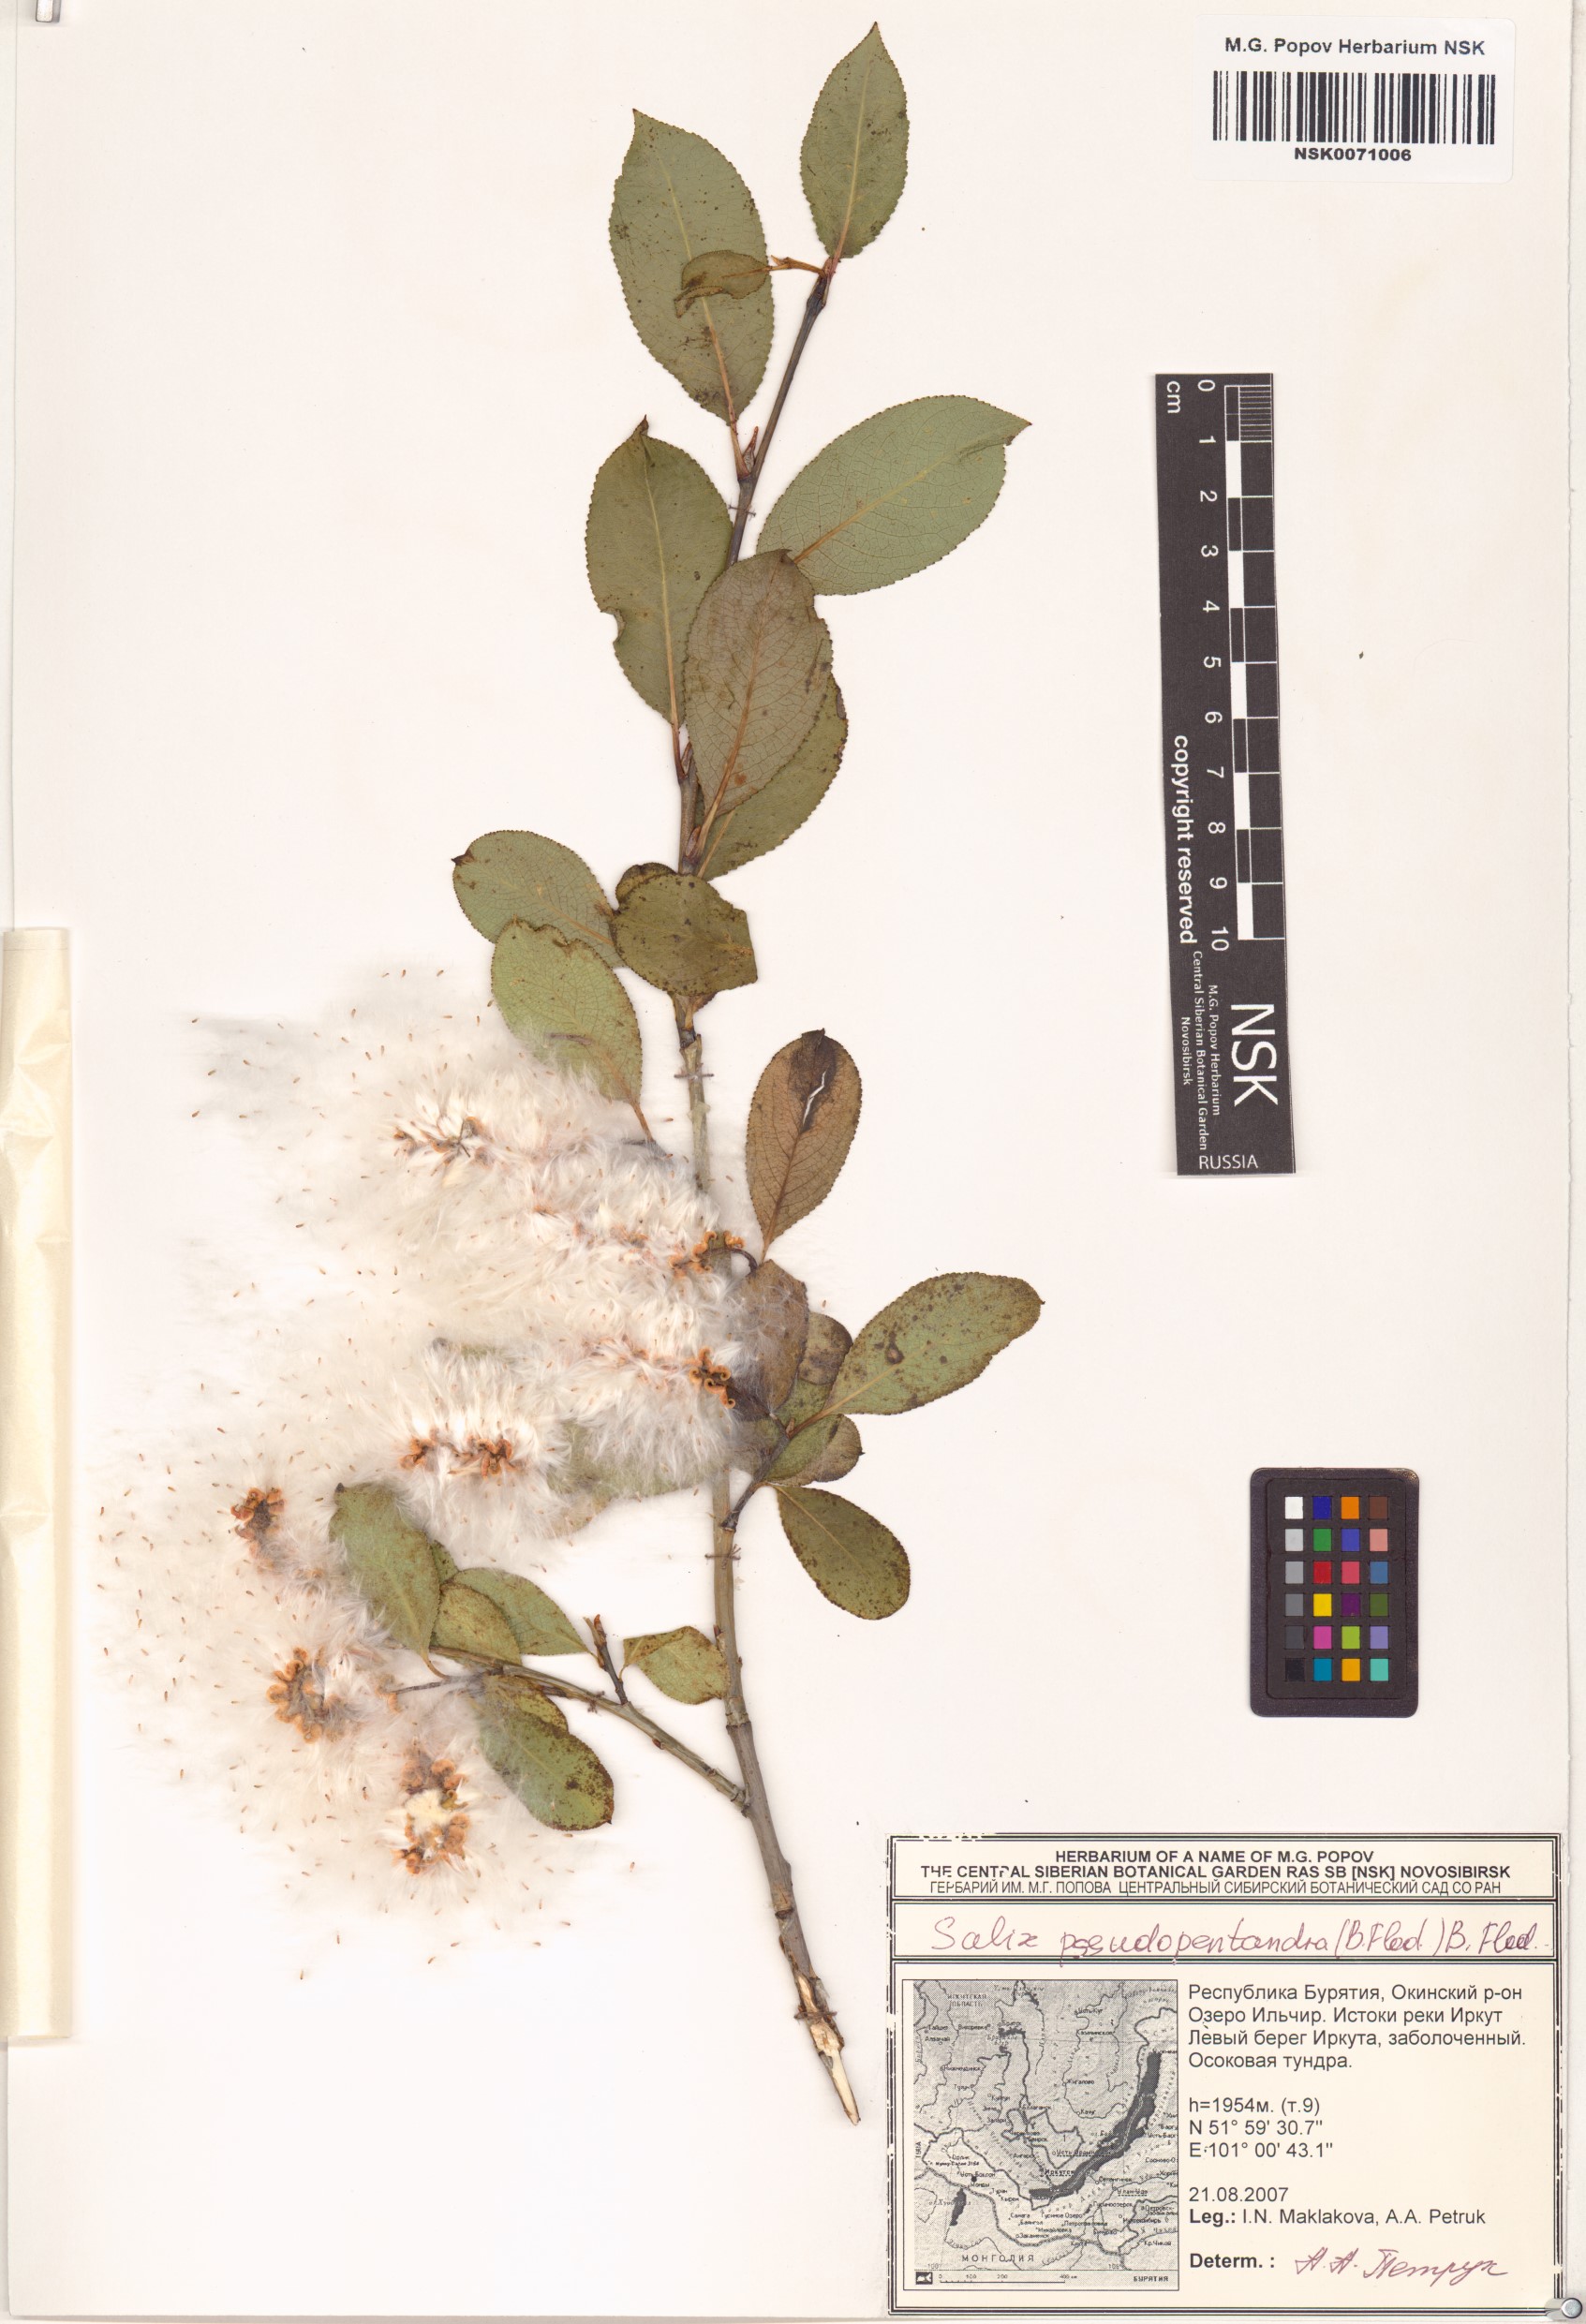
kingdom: Plantae
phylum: Tracheophyta
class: Magnoliopsida
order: Malpighiales
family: Salicaceae
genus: Salix
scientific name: Salix pseudopentandra
